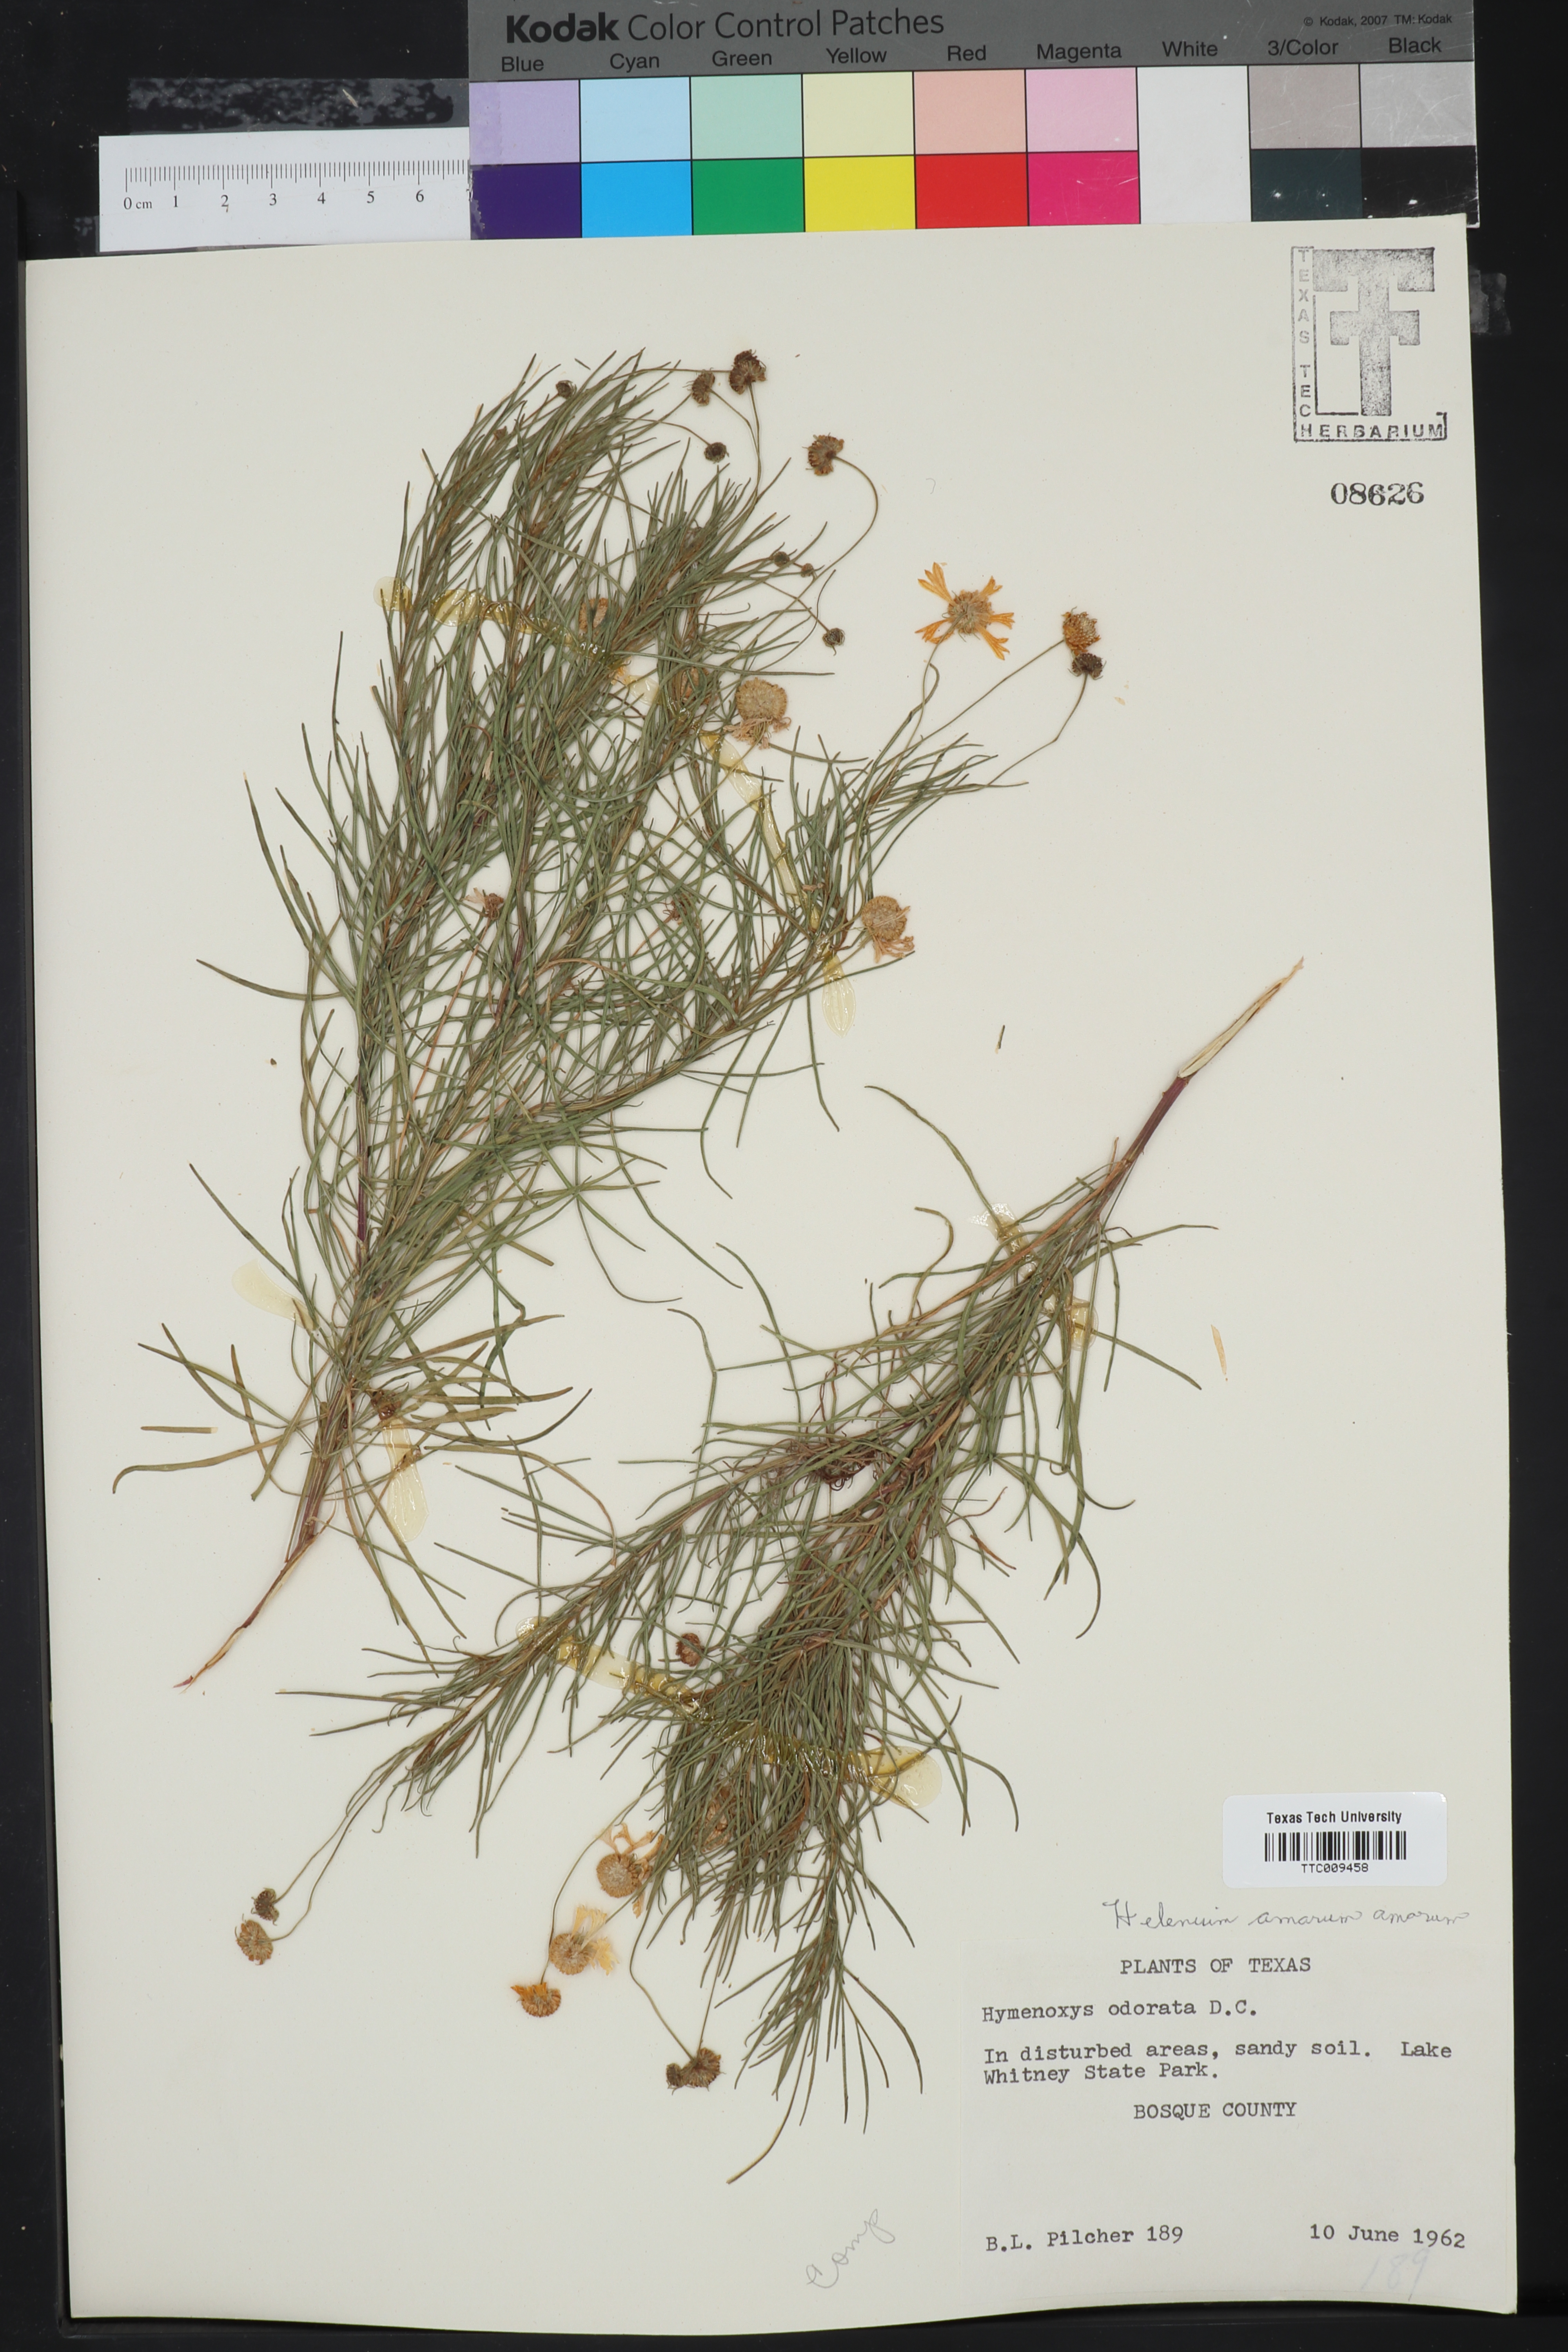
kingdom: Plantae
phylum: Tracheophyta
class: Magnoliopsida
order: Asterales
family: Asteraceae
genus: Hymenoxys
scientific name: Hymenoxys odorata
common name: Bitter rubberweed
